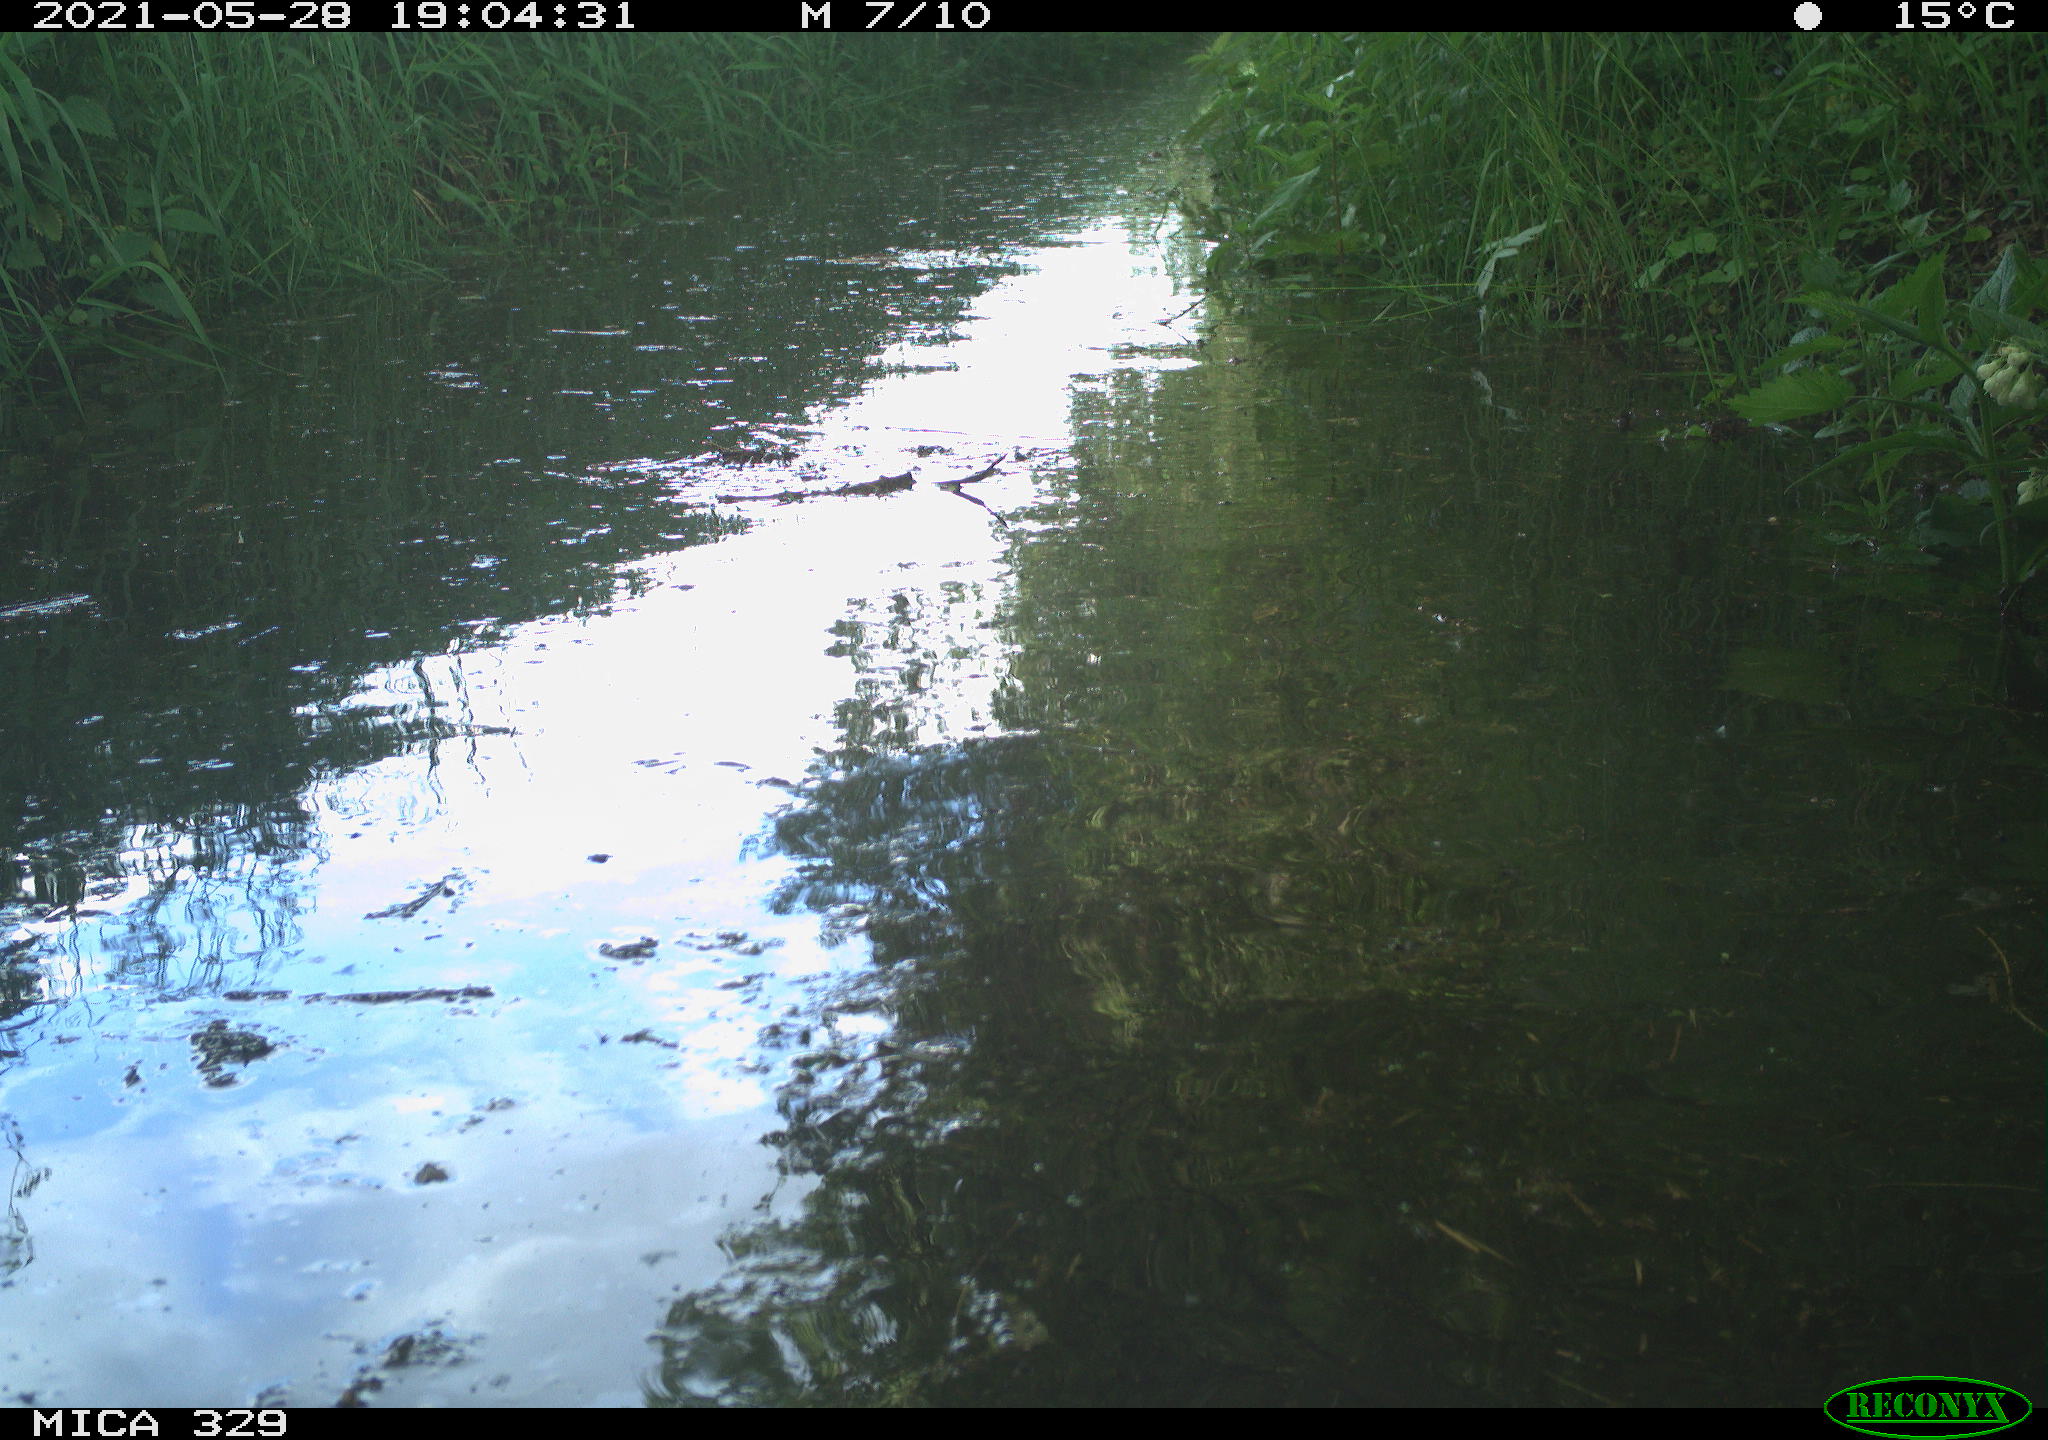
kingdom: Animalia
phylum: Chordata
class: Aves
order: Columbiformes
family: Columbidae
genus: Columba
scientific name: Columba palumbus
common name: Common wood pigeon
